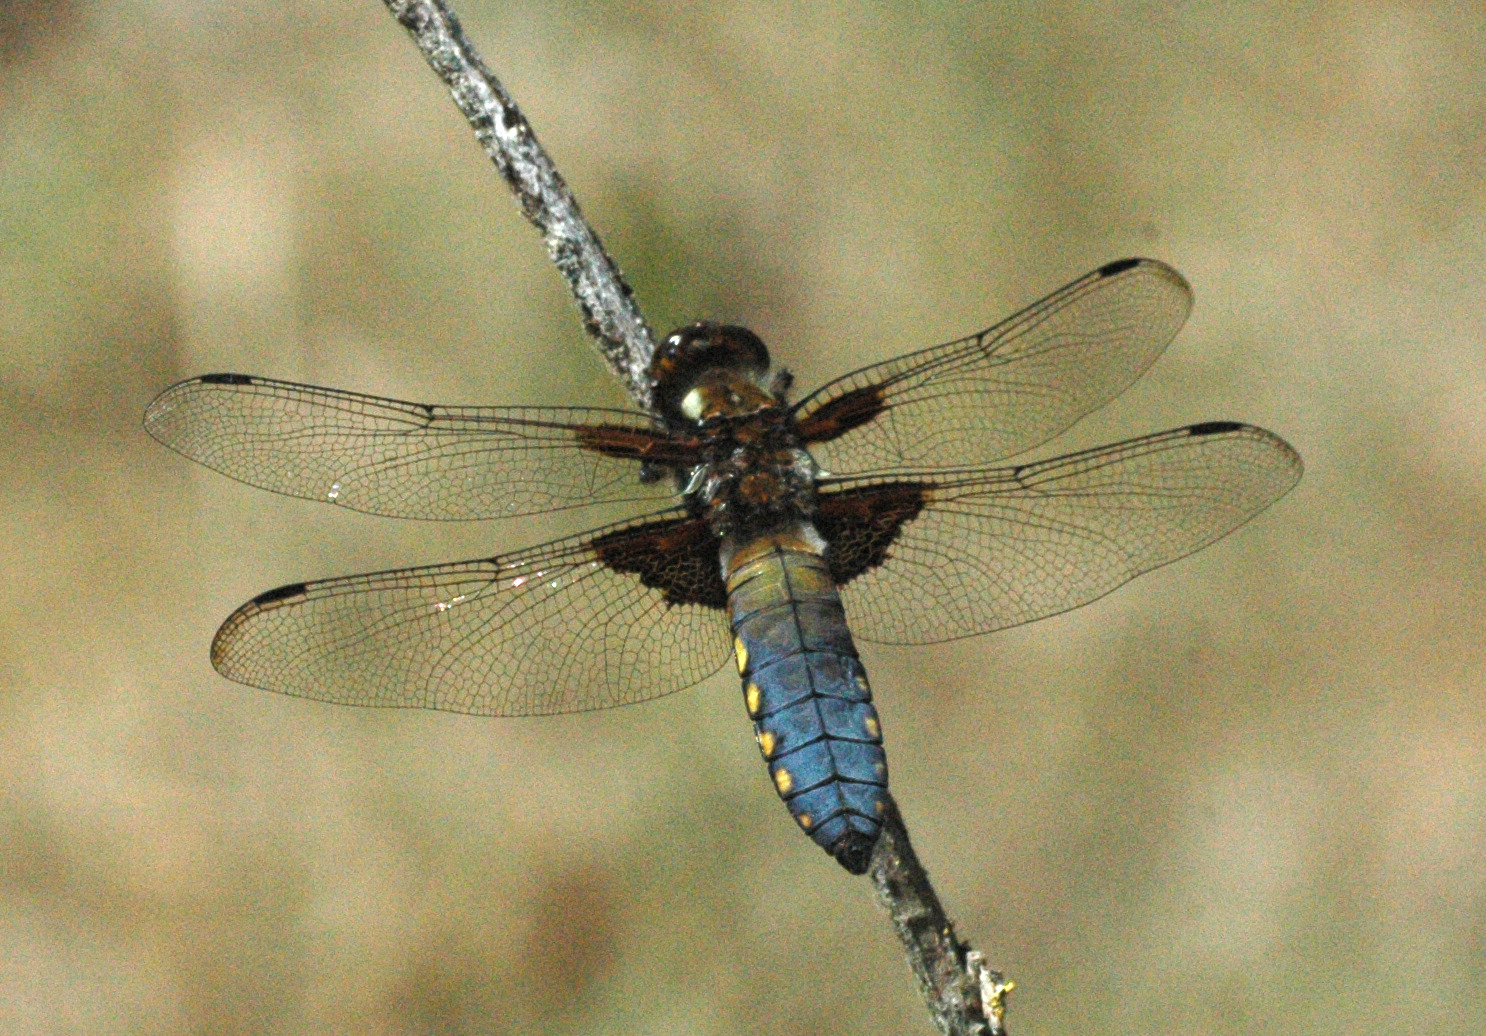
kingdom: Animalia
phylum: Arthropoda
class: Insecta
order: Odonata
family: Libellulidae
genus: Libellula
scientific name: Libellula depressa
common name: Blå libel
